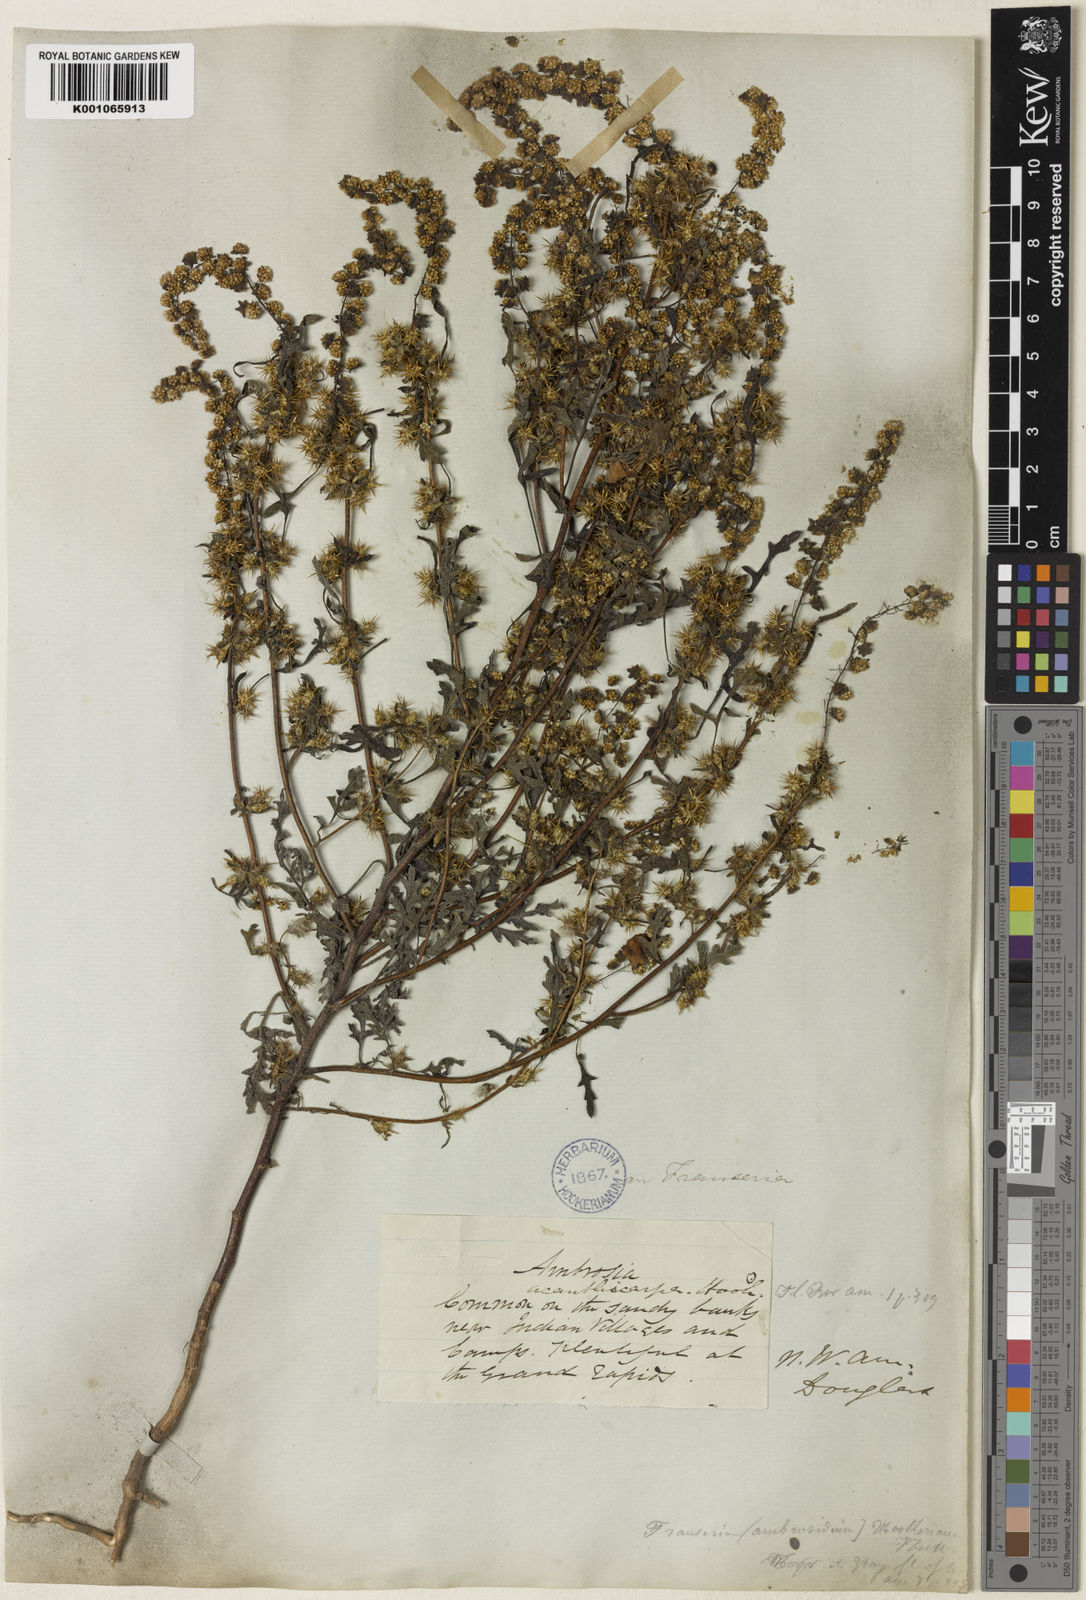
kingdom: Plantae
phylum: Tracheophyta
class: Magnoliopsida
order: Asterales
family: Asteraceae
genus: Ambrosia
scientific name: Ambrosia acanthicarpa
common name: Hooker's bur ragweed
